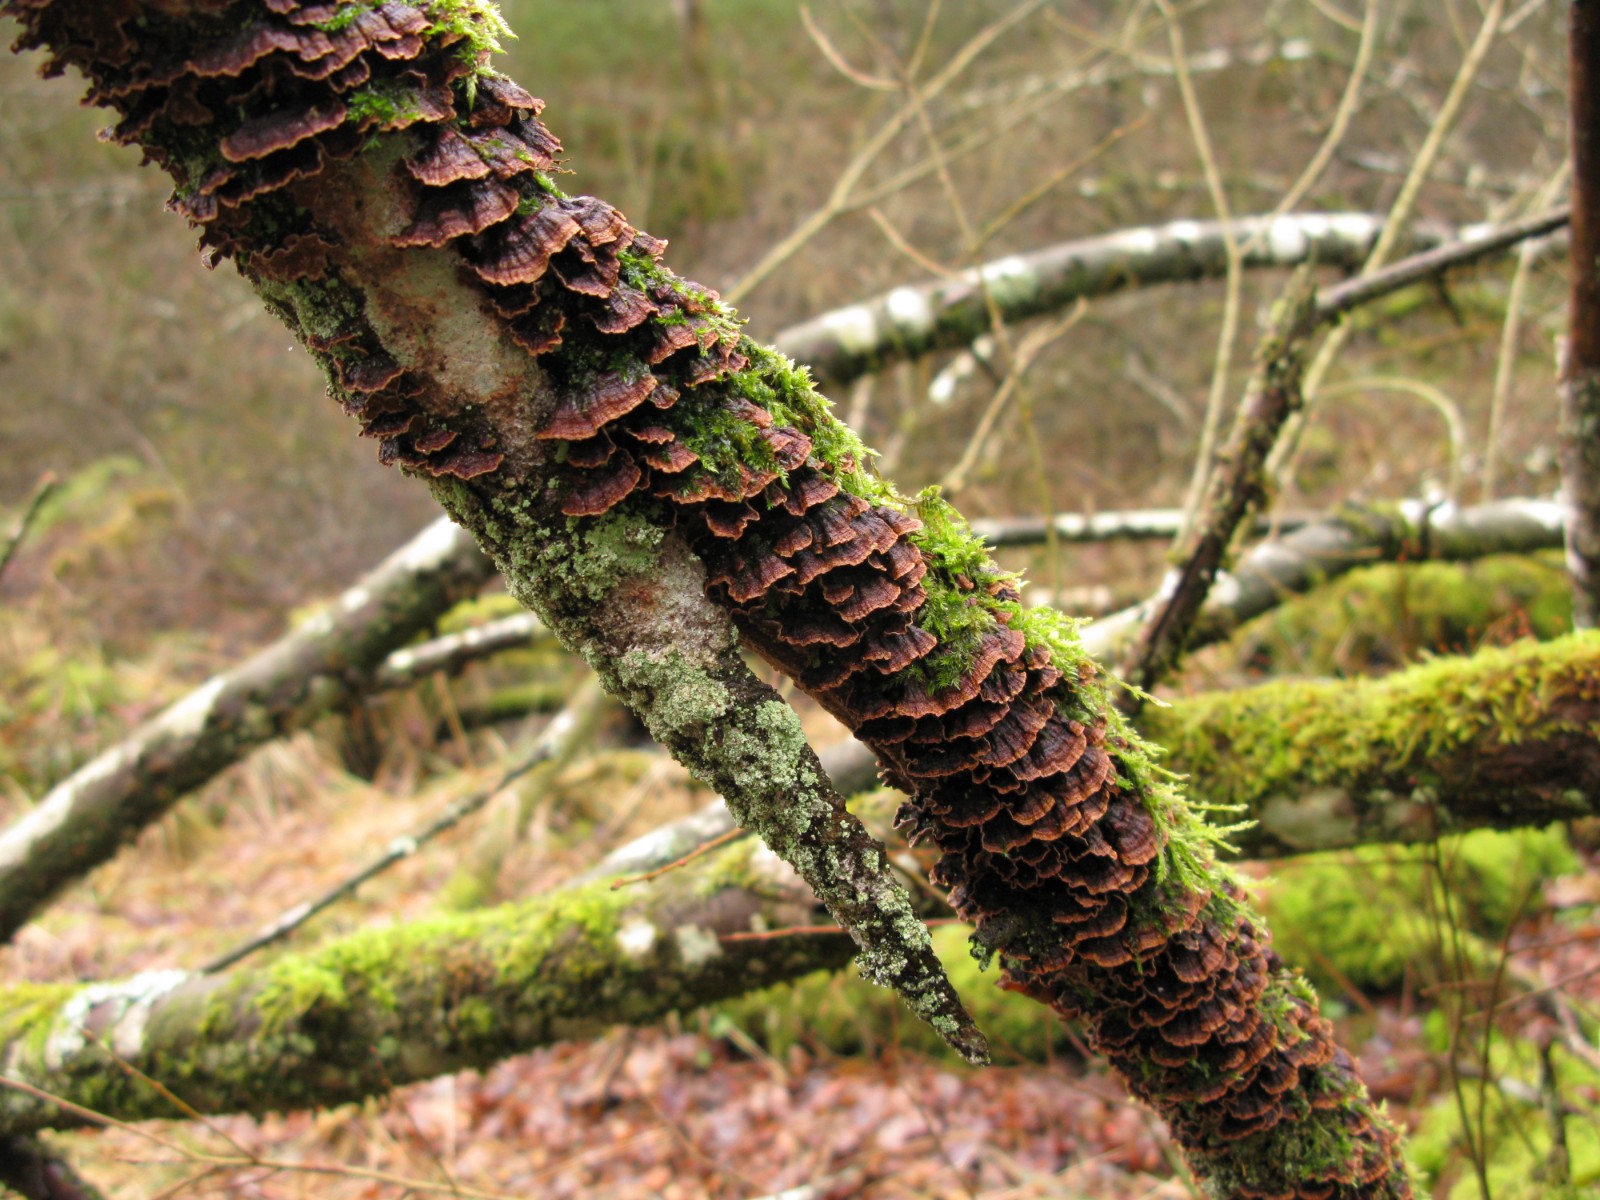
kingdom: Fungi
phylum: Basidiomycota
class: Agaricomycetes
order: Hymenochaetales
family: Hymenochaetaceae
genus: Hydnoporia
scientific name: Hydnoporia tabacina
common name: tobaksbrun ruslædersvamp
